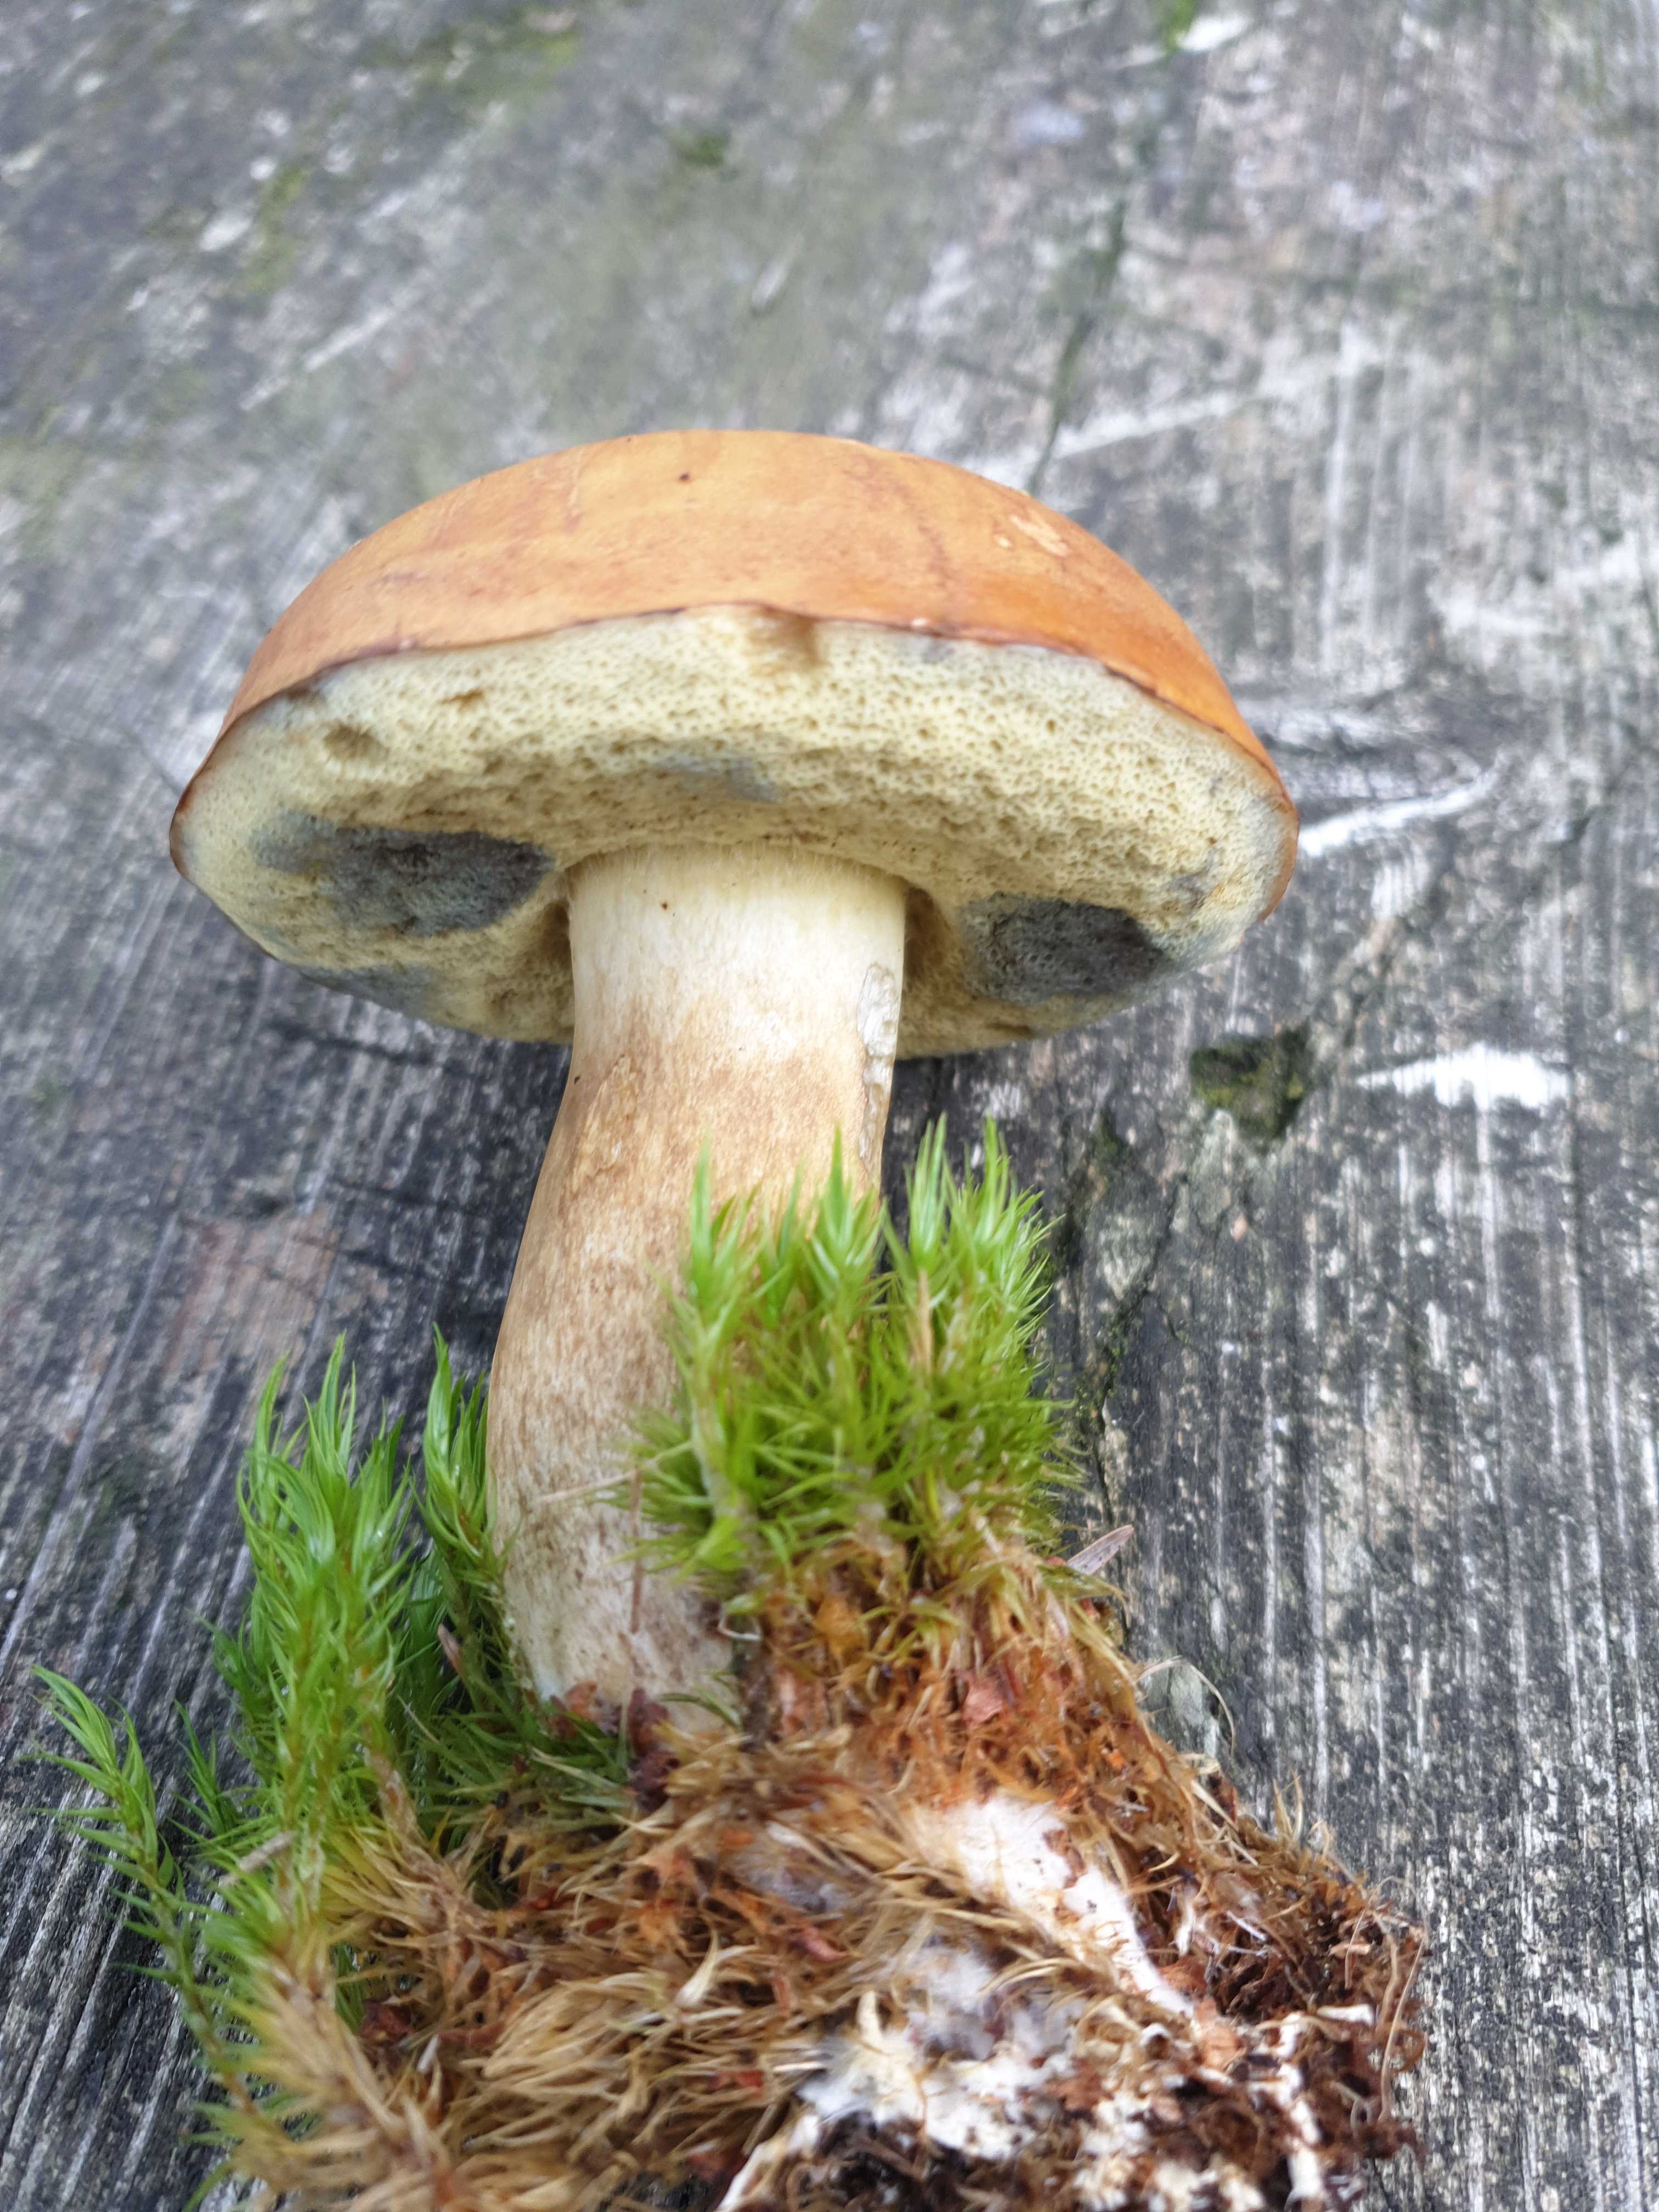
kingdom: Fungi
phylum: Basidiomycota
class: Agaricomycetes
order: Boletales
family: Boletaceae
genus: Imleria
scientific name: Imleria badia
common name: brunstokket rørhat
